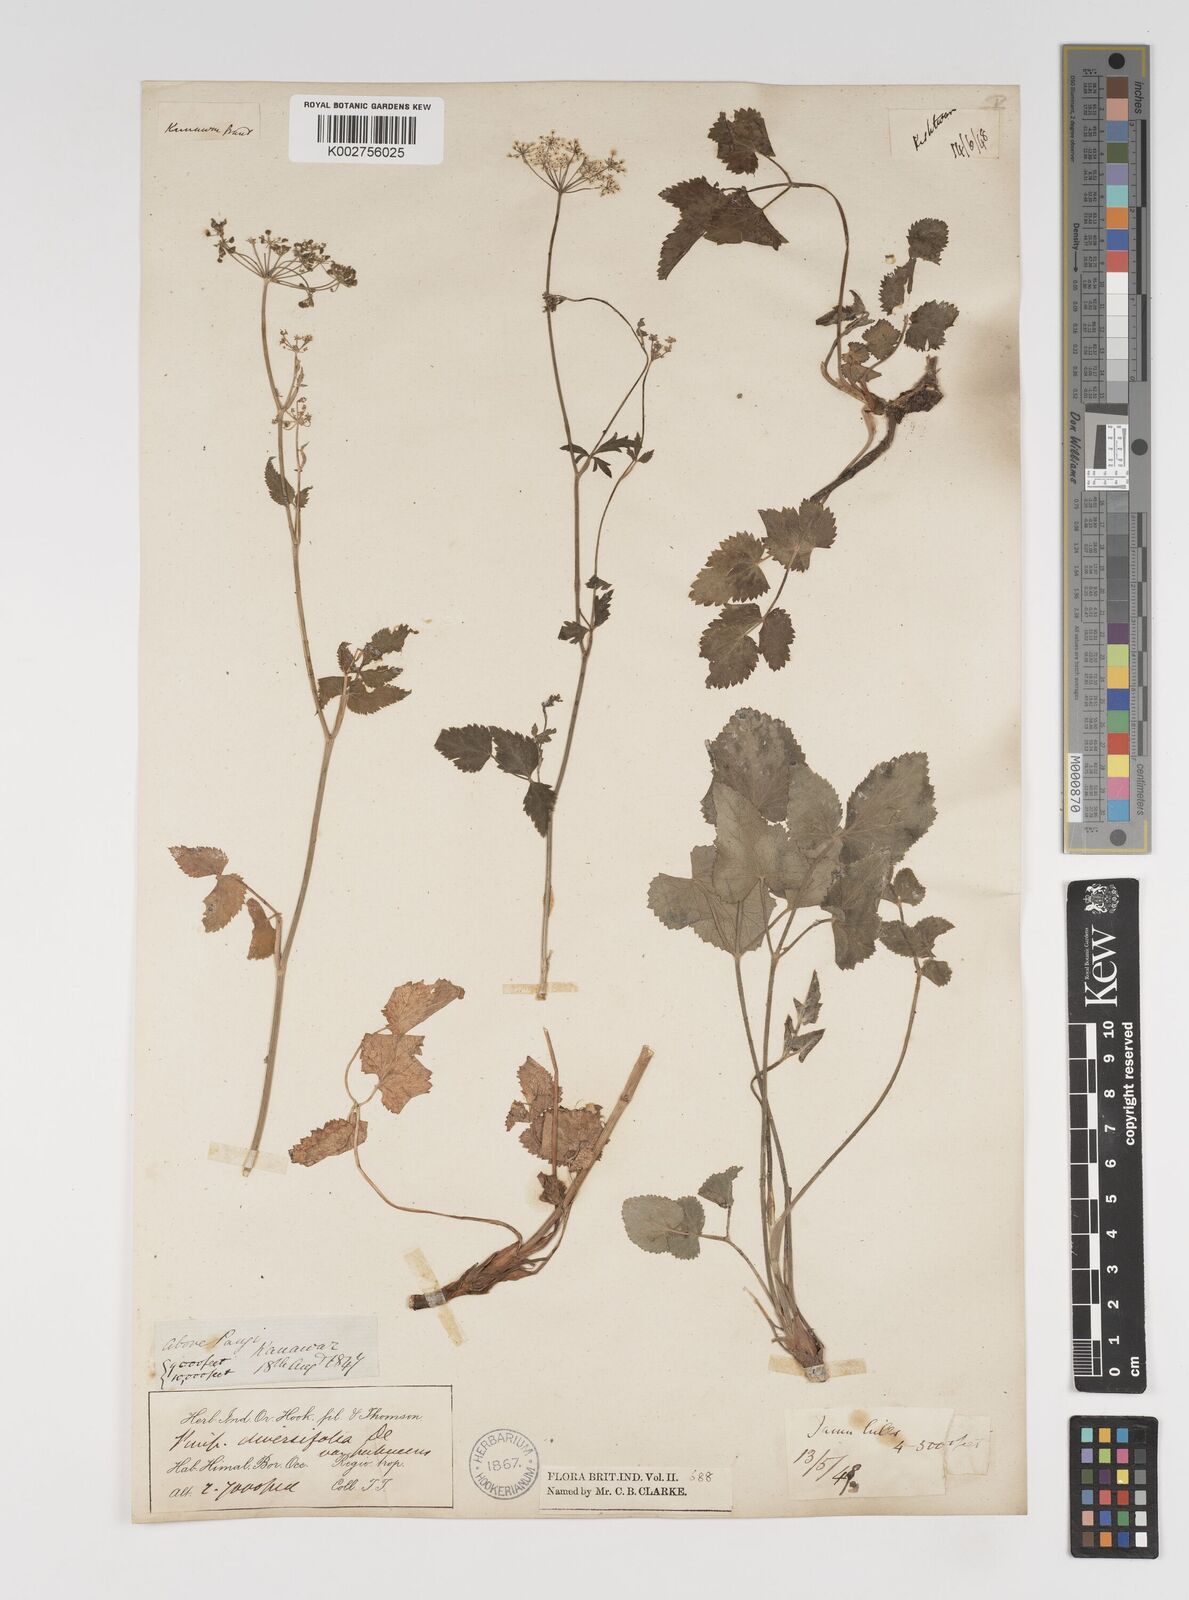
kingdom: Plantae
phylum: Tracheophyta
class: Magnoliopsida
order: Apiales
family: Apiaceae
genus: Pimpinella
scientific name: Pimpinella diversifolia
